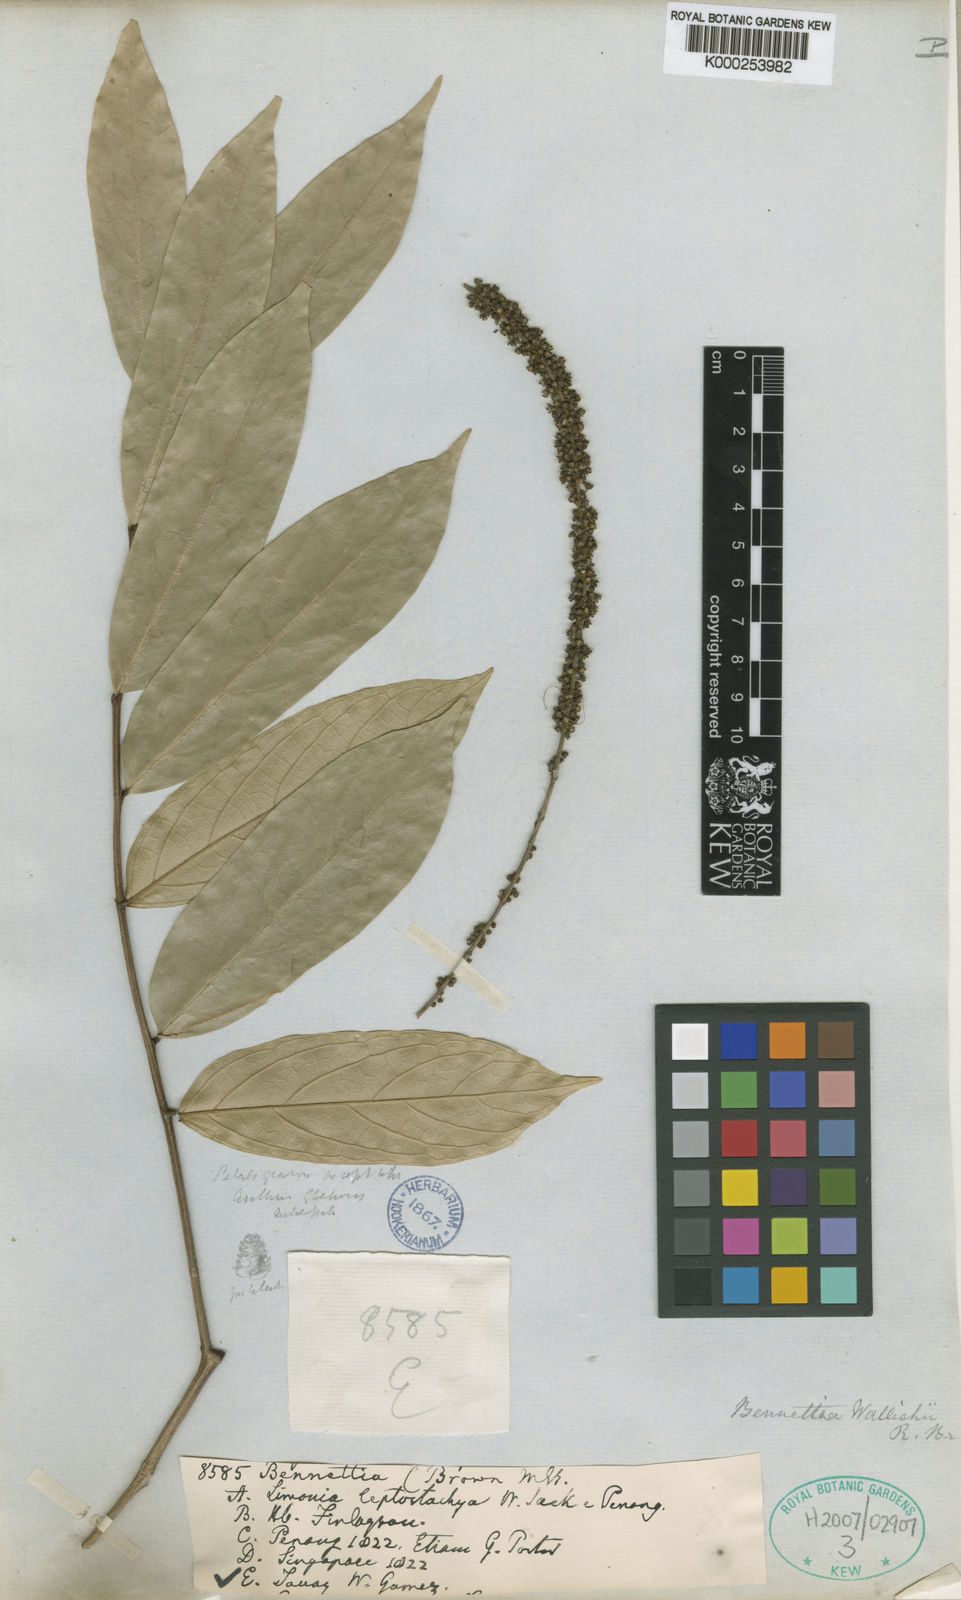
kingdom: Plantae
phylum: Tracheophyta
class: Magnoliopsida
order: Malpighiales
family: Pandaceae
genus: Galearia
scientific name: Galearia fulva
